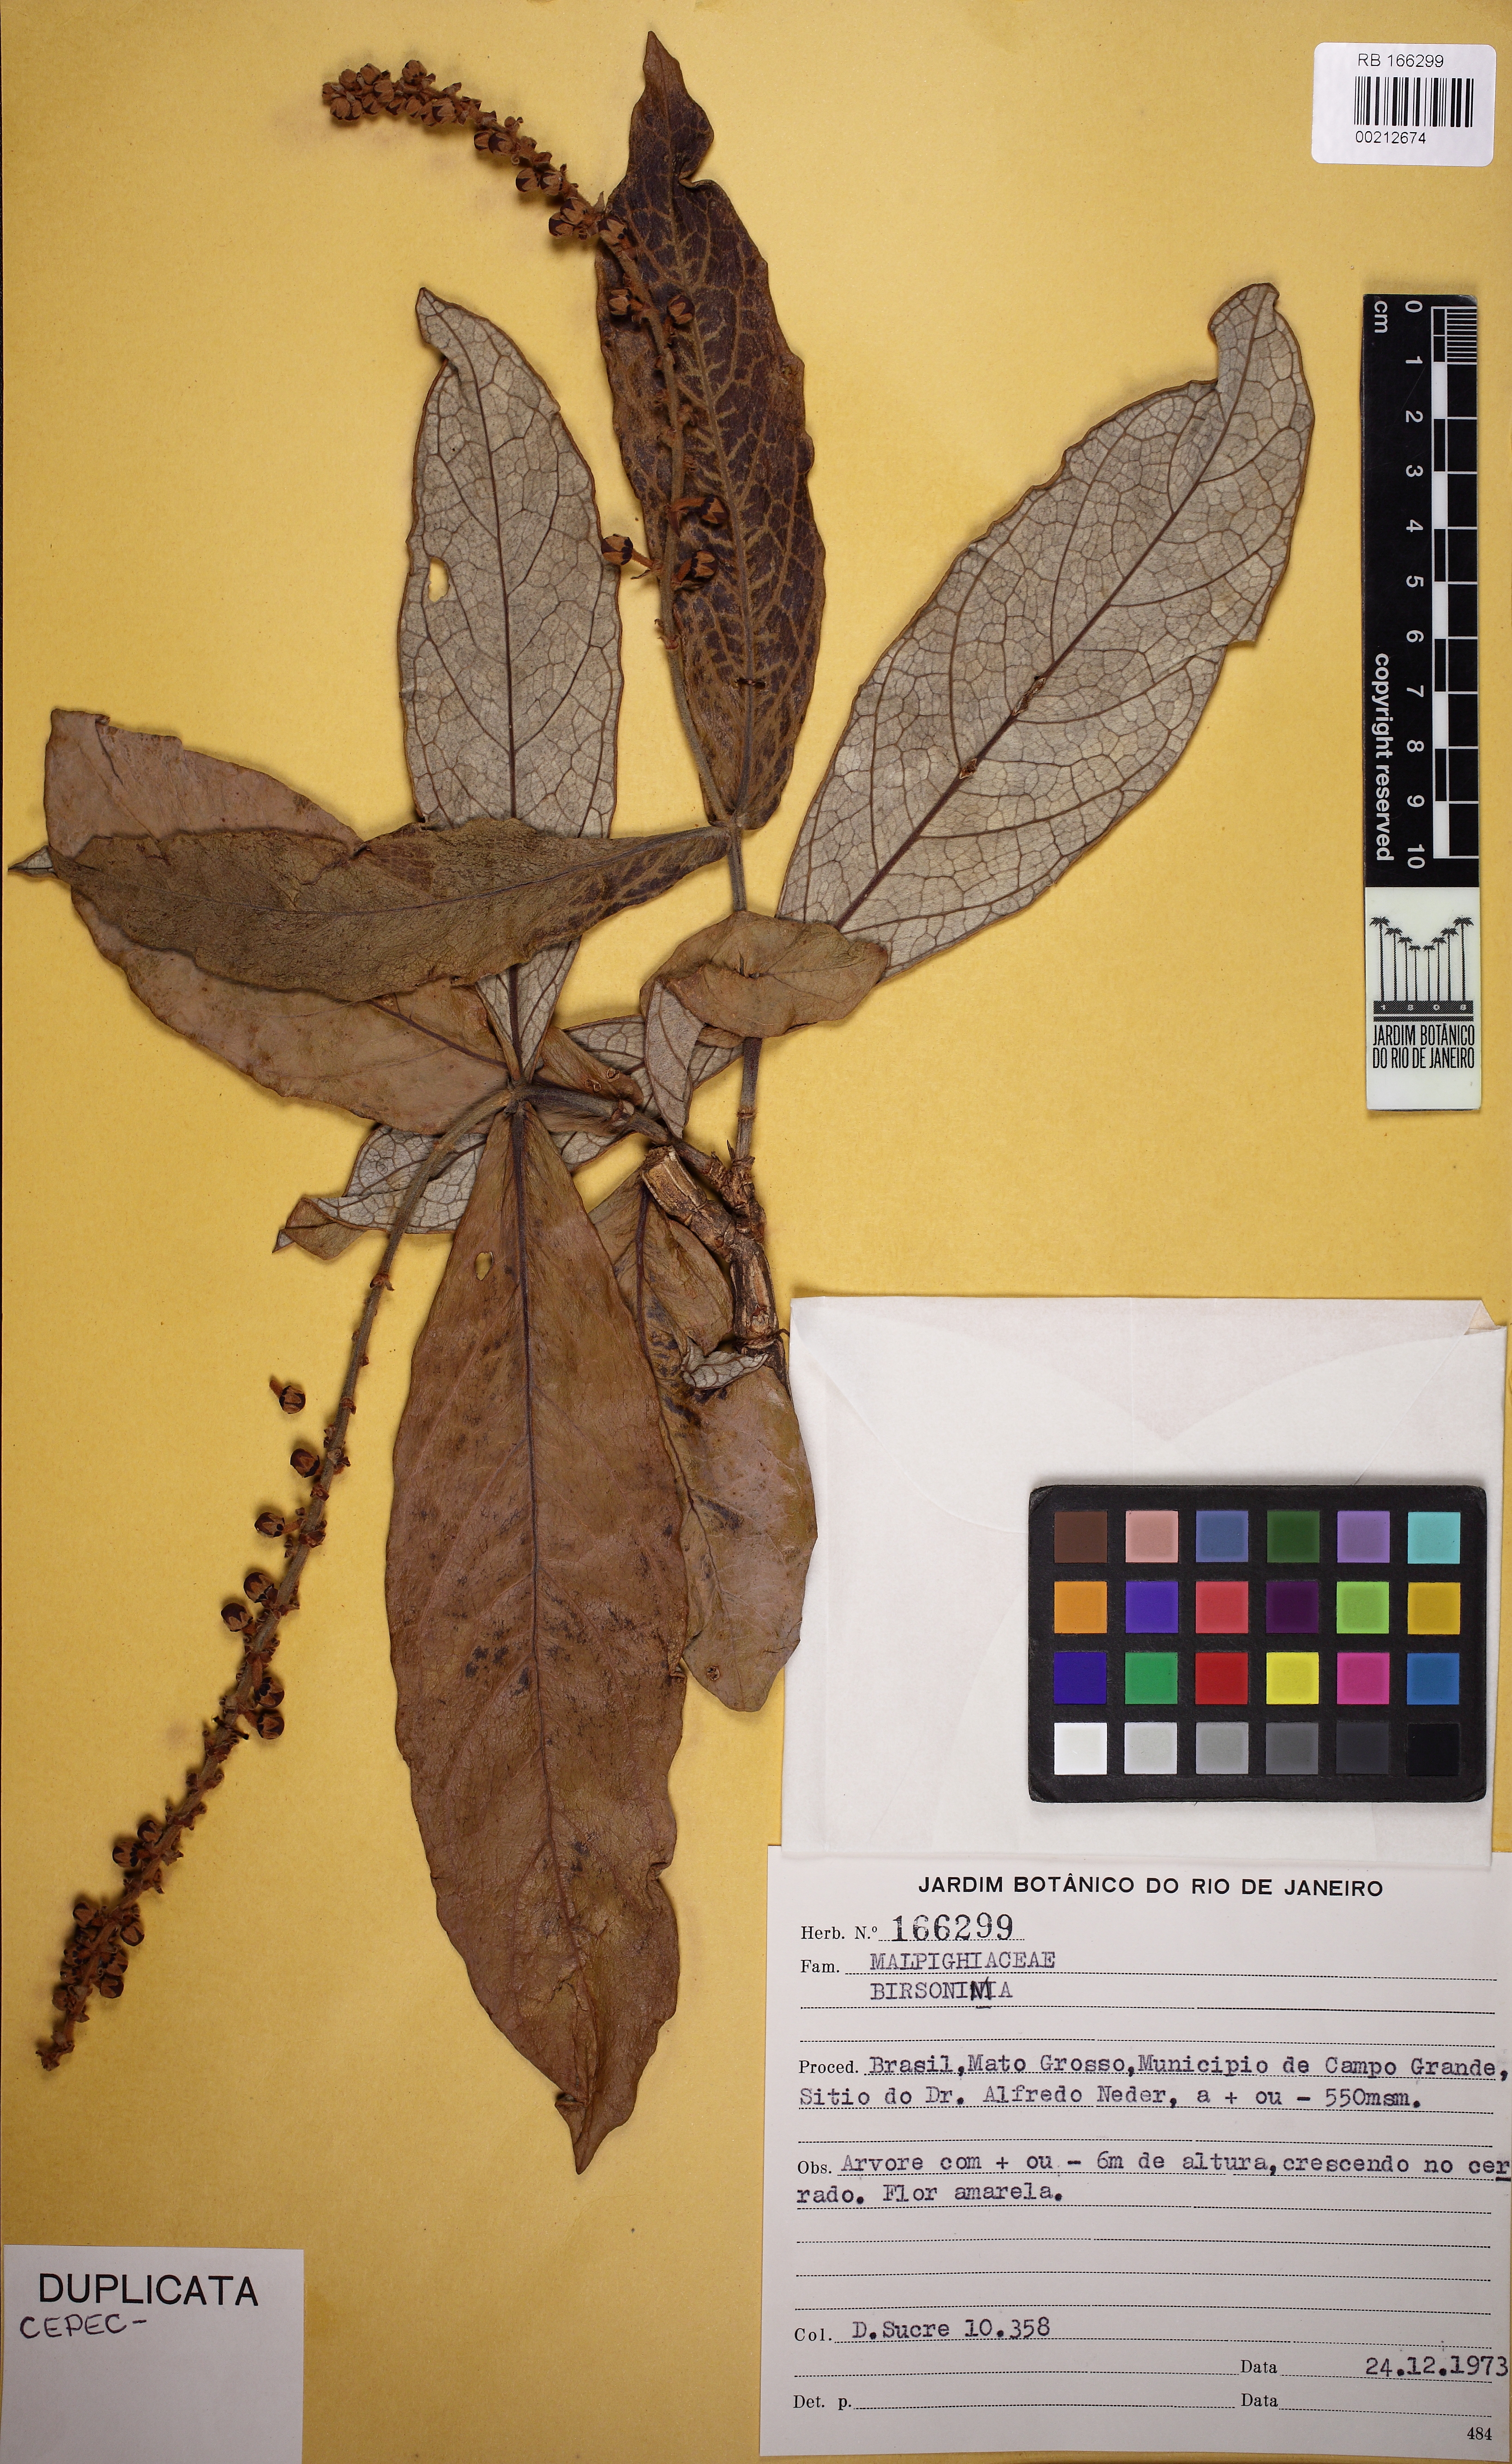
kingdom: Plantae
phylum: Tracheophyta
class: Magnoliopsida
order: Malpighiales
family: Malpighiaceae
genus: Byrsonima
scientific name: Byrsonima affinis
